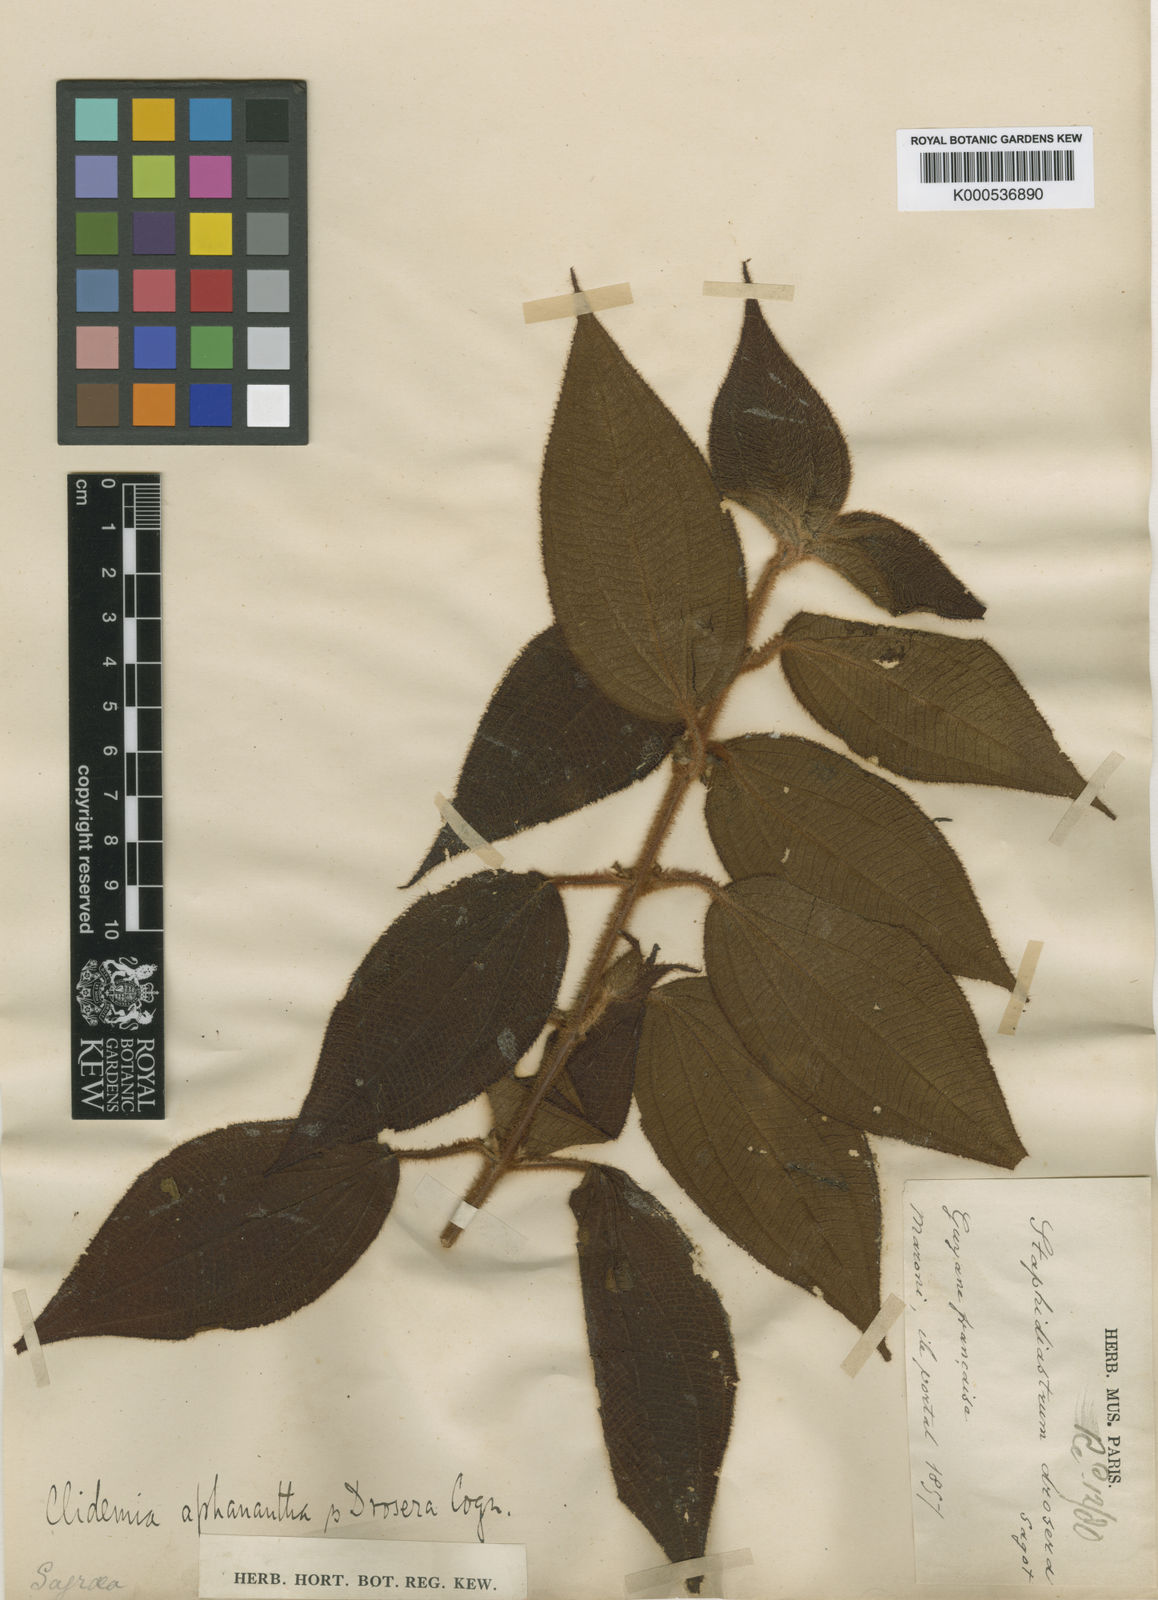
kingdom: Plantae
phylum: Tracheophyta
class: Magnoliopsida
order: Myrtales
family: Melastomataceae
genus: Miconia
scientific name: Miconia drosera
